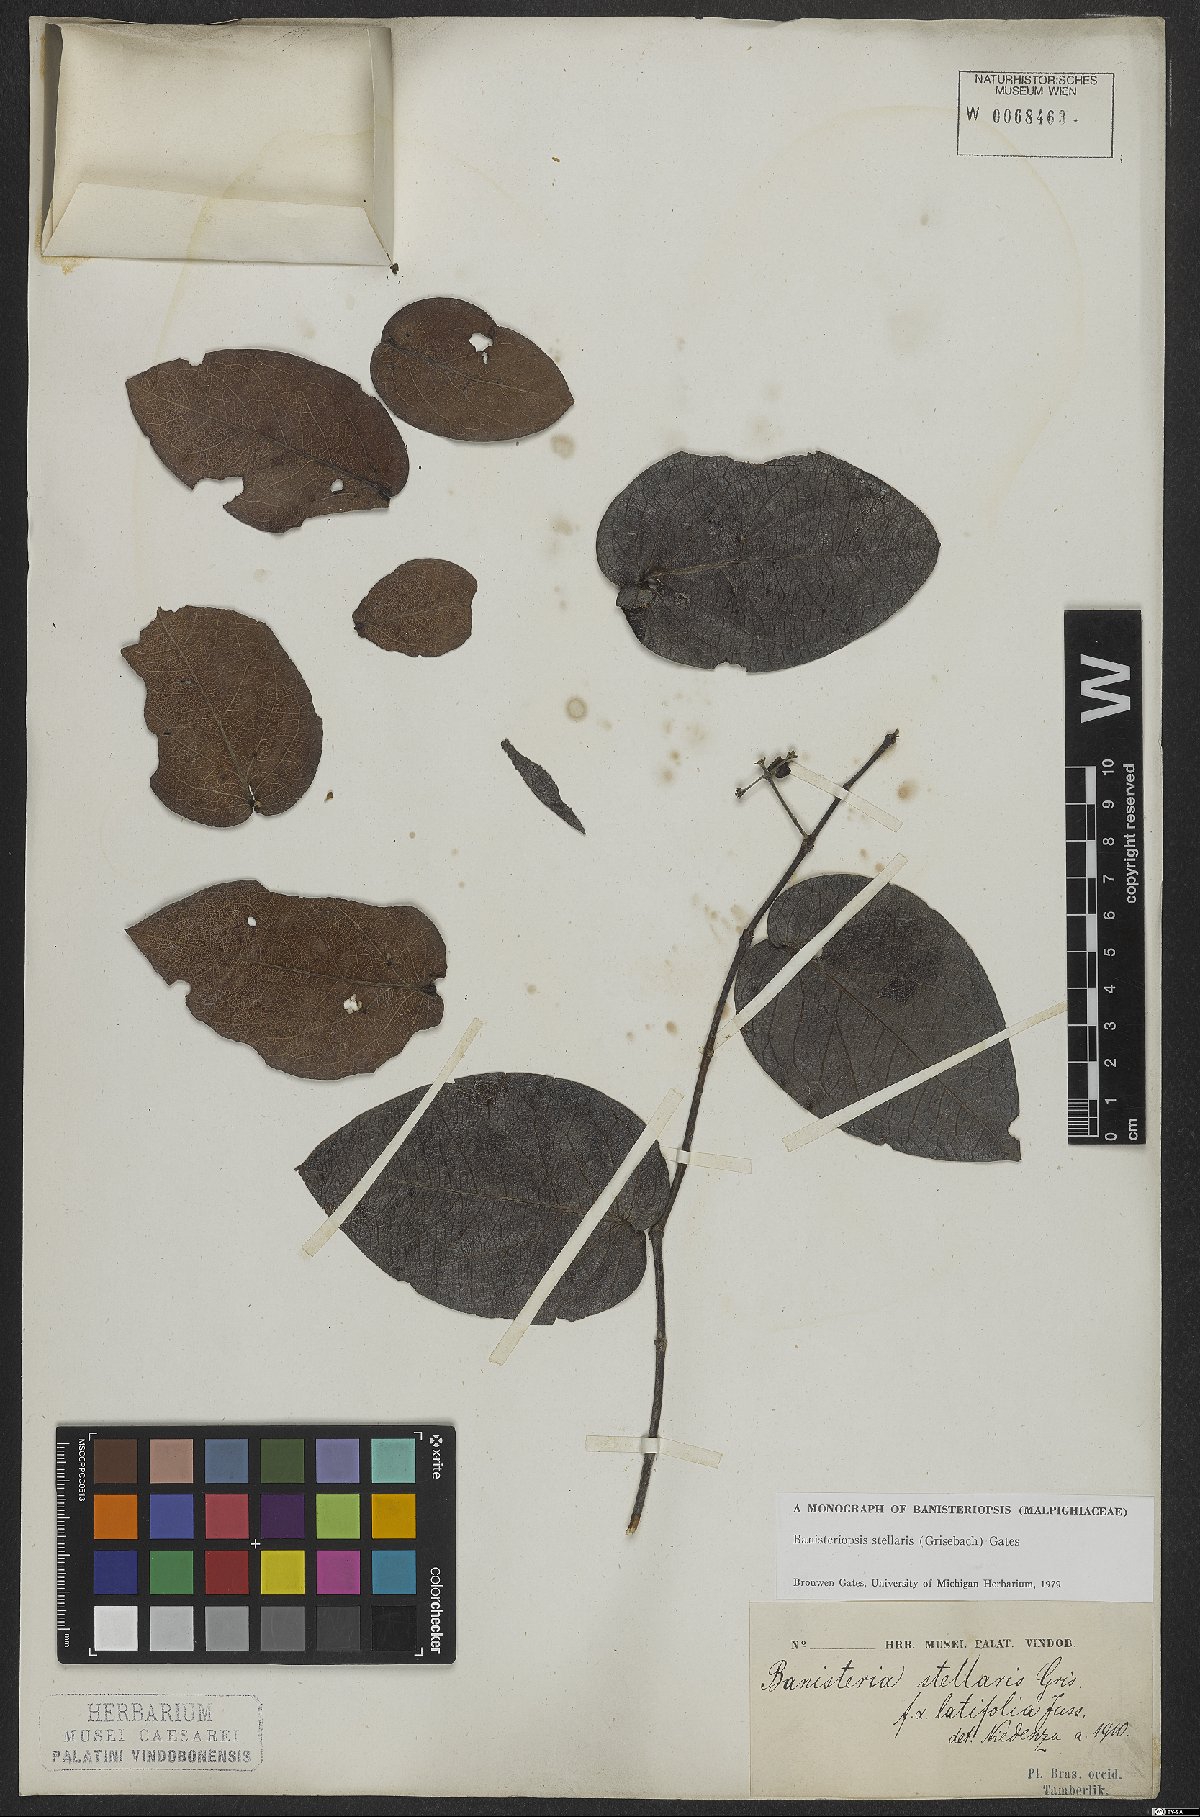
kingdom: Plantae
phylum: Tracheophyta
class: Magnoliopsida
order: Malpighiales
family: Malpighiaceae
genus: Banisteriopsis
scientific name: Banisteriopsis stellaris
